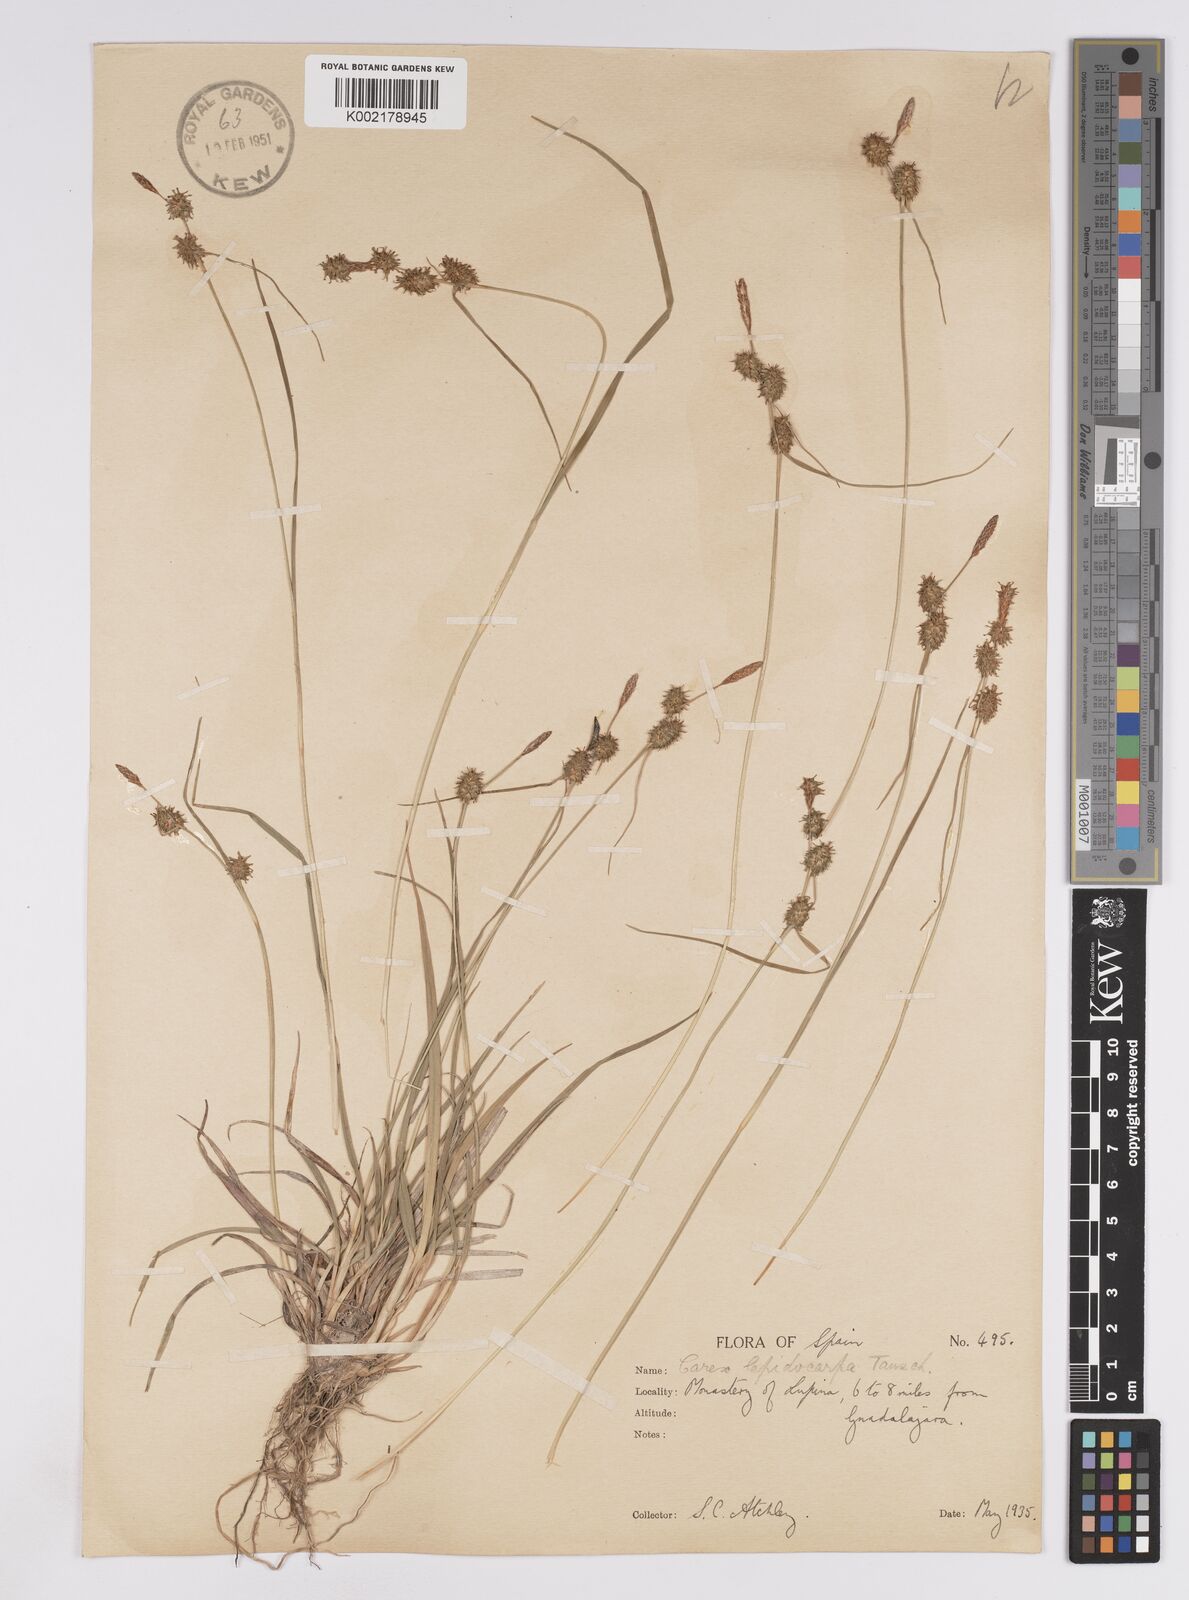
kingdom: Plantae
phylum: Tracheophyta
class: Liliopsida
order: Poales
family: Cyperaceae
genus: Carex
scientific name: Carex lepidocarpa
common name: Long-stalked yellow-sedge
